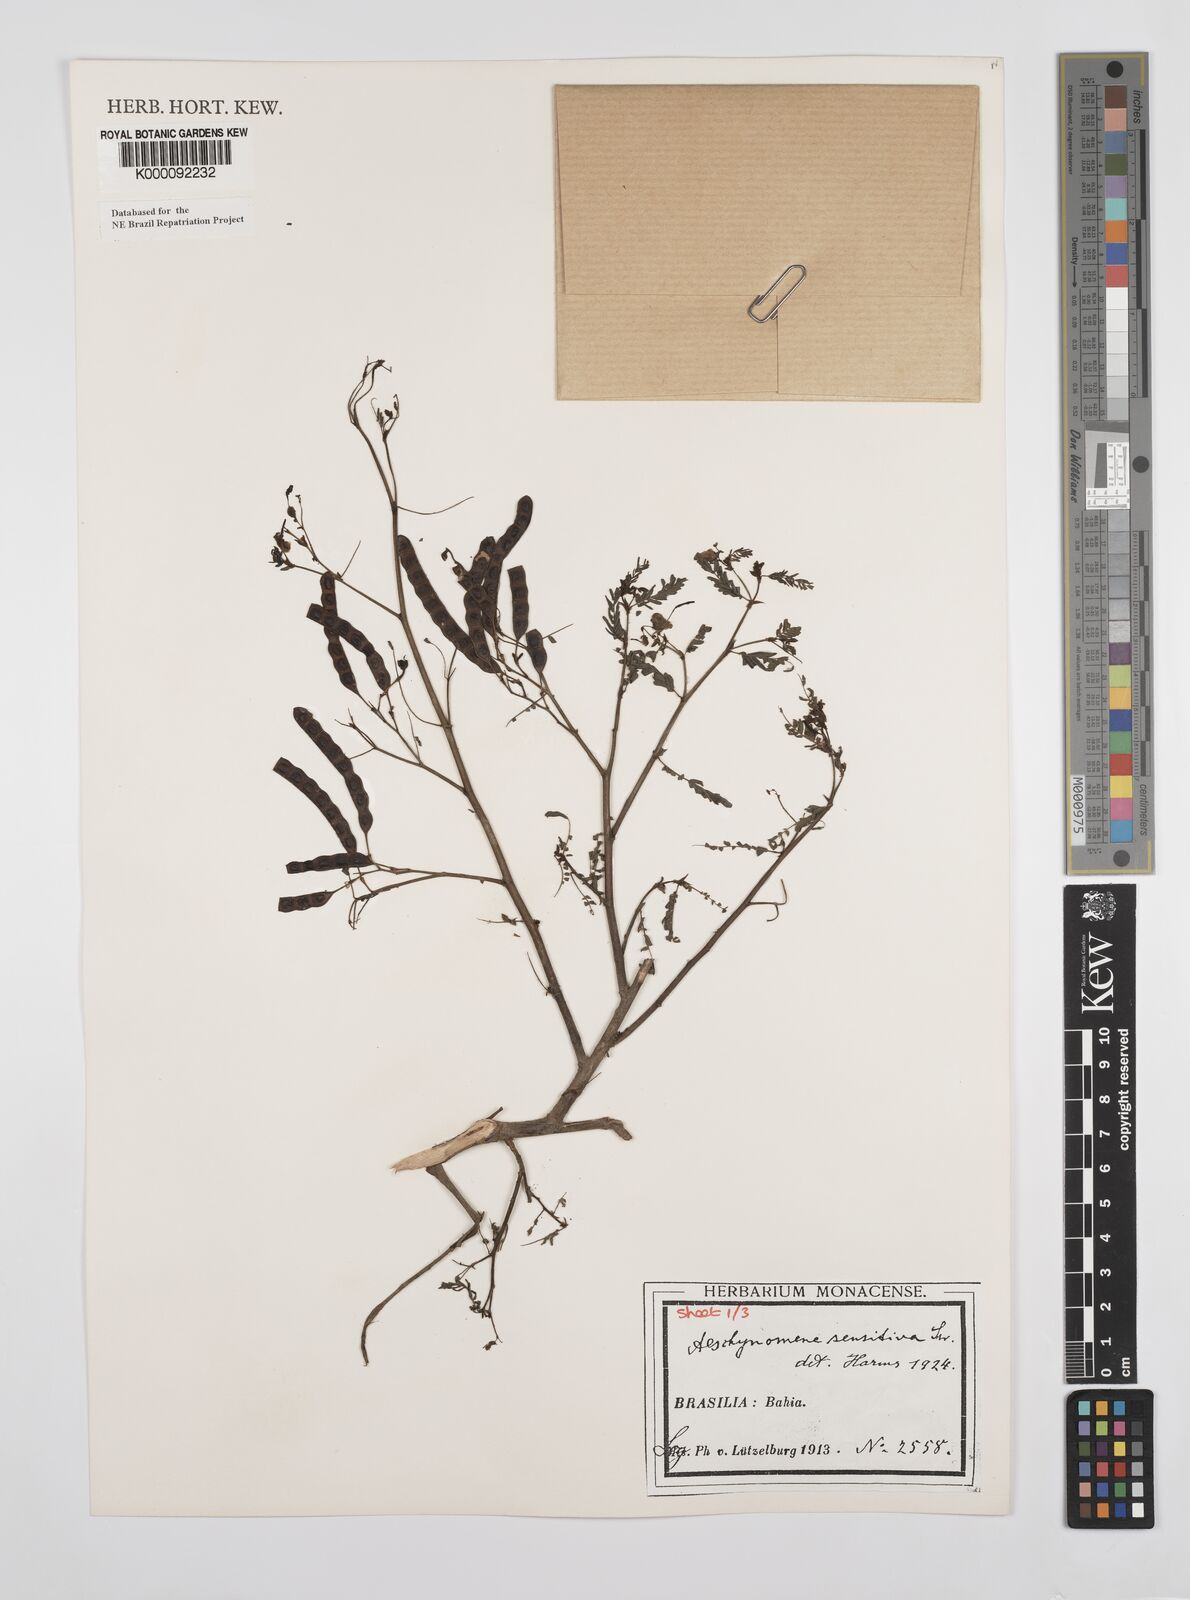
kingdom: Plantae
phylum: Tracheophyta
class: Magnoliopsida
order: Fabales
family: Fabaceae
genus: Aeschynomene
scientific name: Aeschynomene sensitiva
